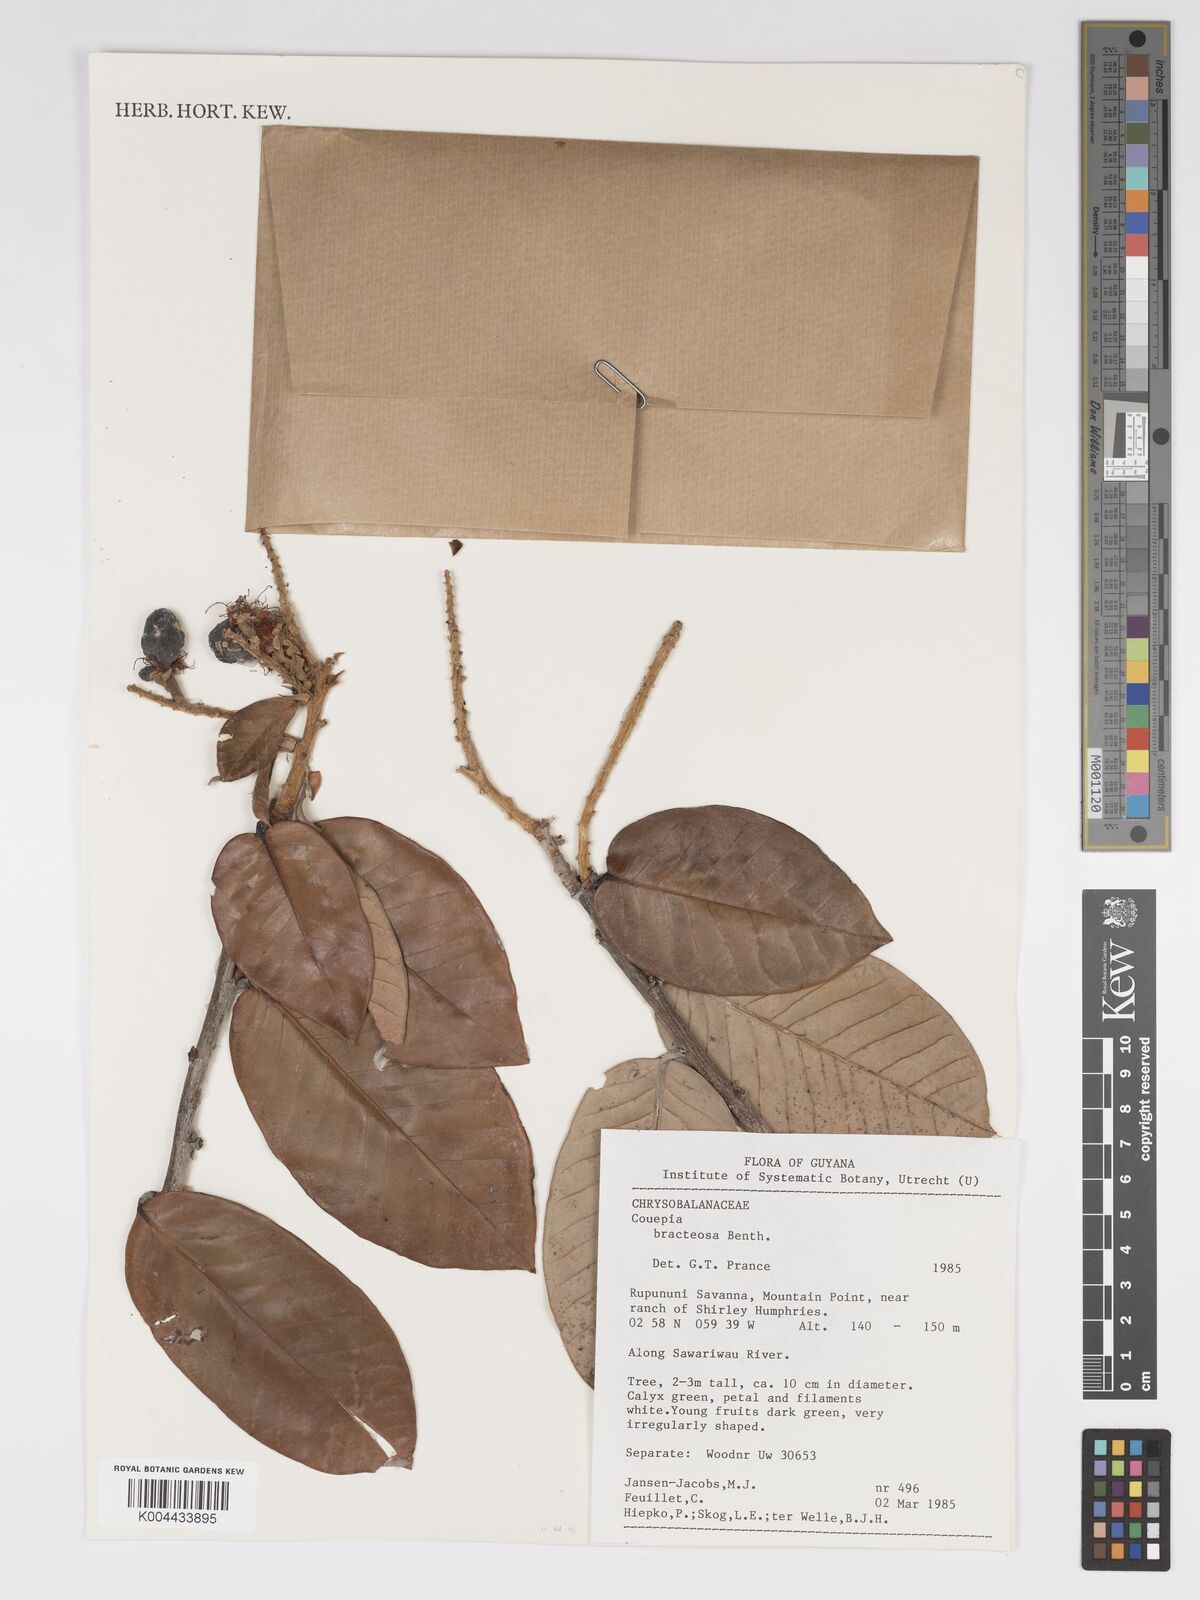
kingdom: Plantae
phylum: Tracheophyta
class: Magnoliopsida
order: Malpighiales
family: Chrysobalanaceae
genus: Couepia
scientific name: Couepia bracteosa
